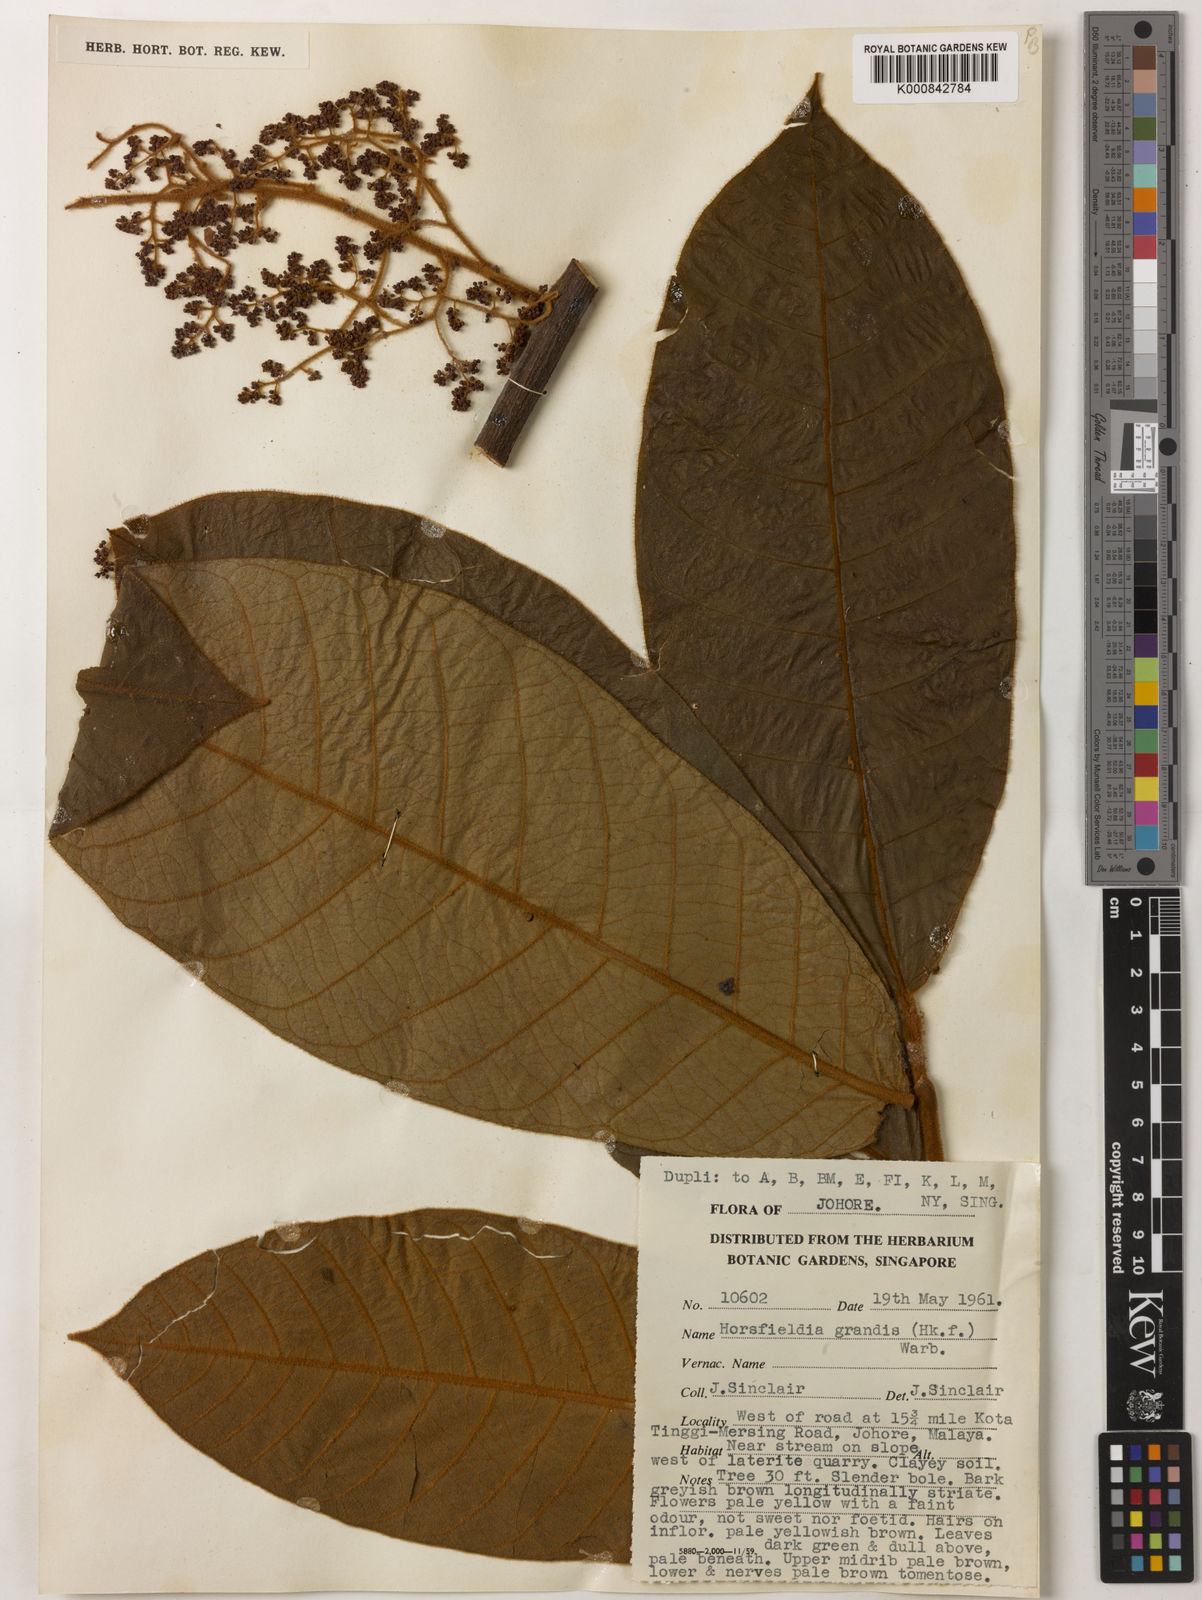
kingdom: Plantae
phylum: Tracheophyta
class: Magnoliopsida
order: Magnoliales
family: Myristicaceae
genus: Horsfieldia
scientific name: Horsfieldia grandis
